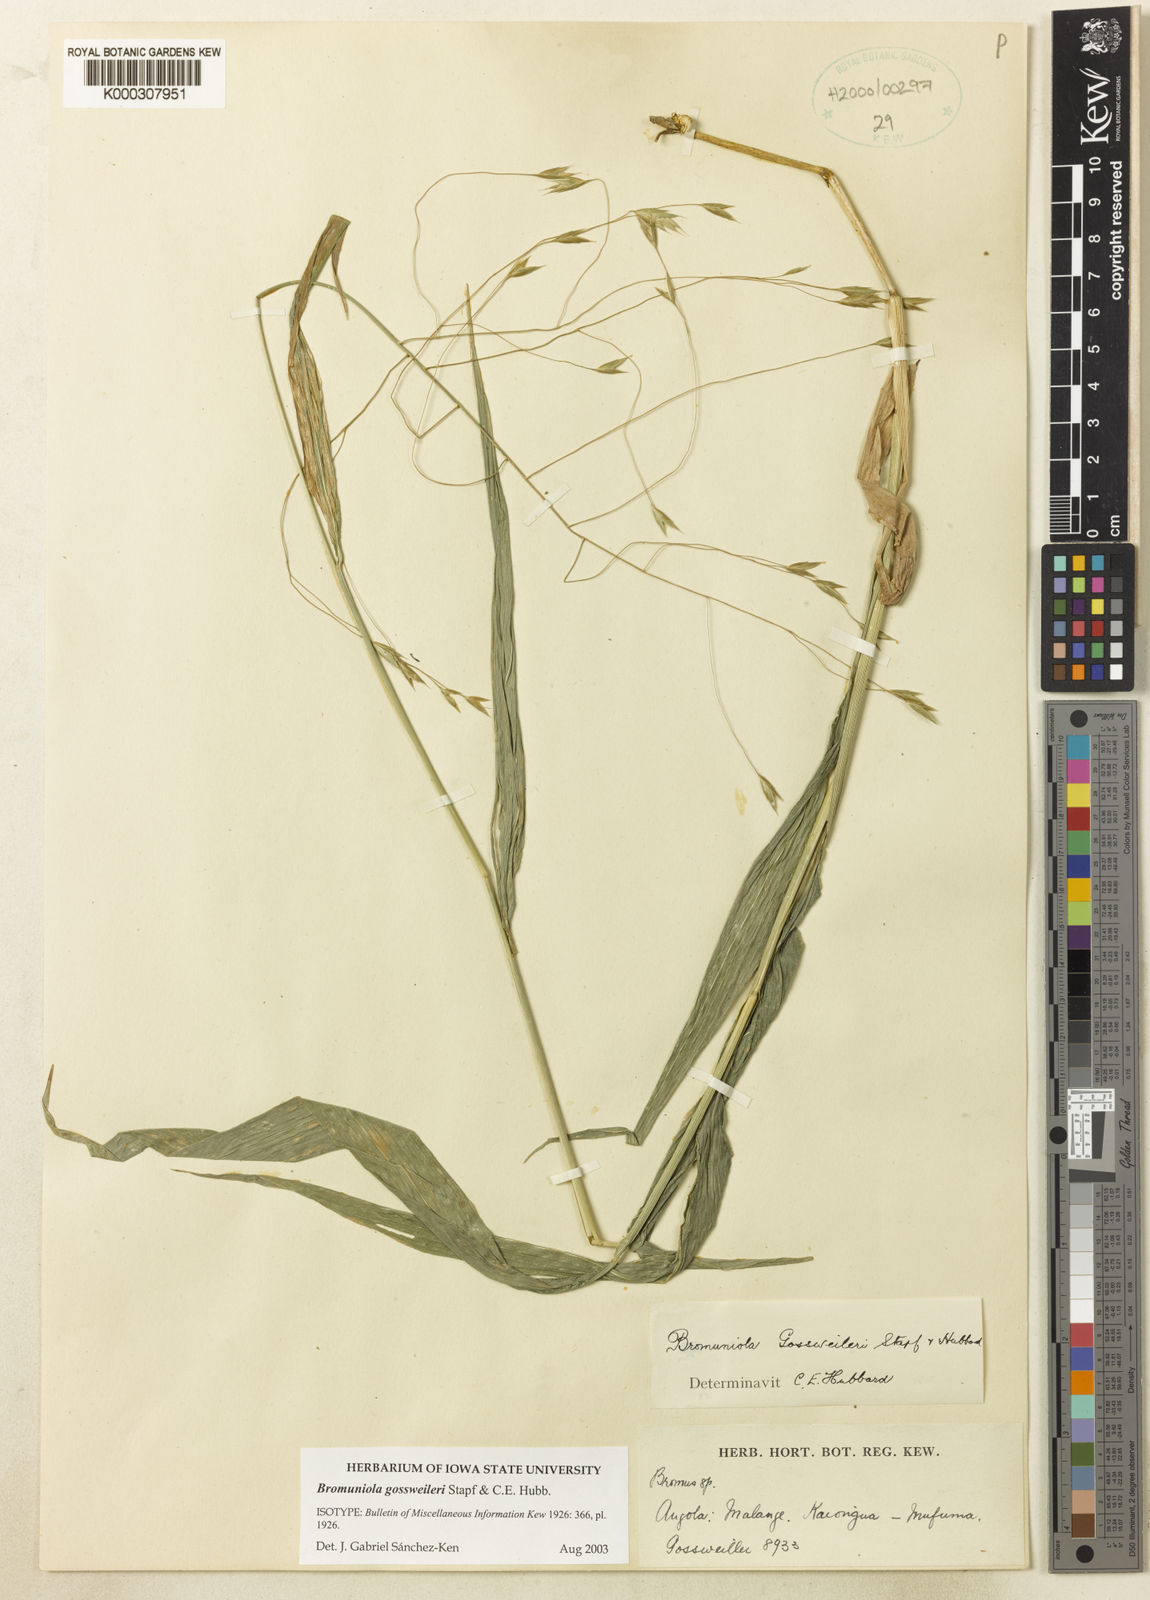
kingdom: Plantae
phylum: Tracheophyta
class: Liliopsida
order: Poales
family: Poaceae
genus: Bromuniola
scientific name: Bromuniola gossweileri
